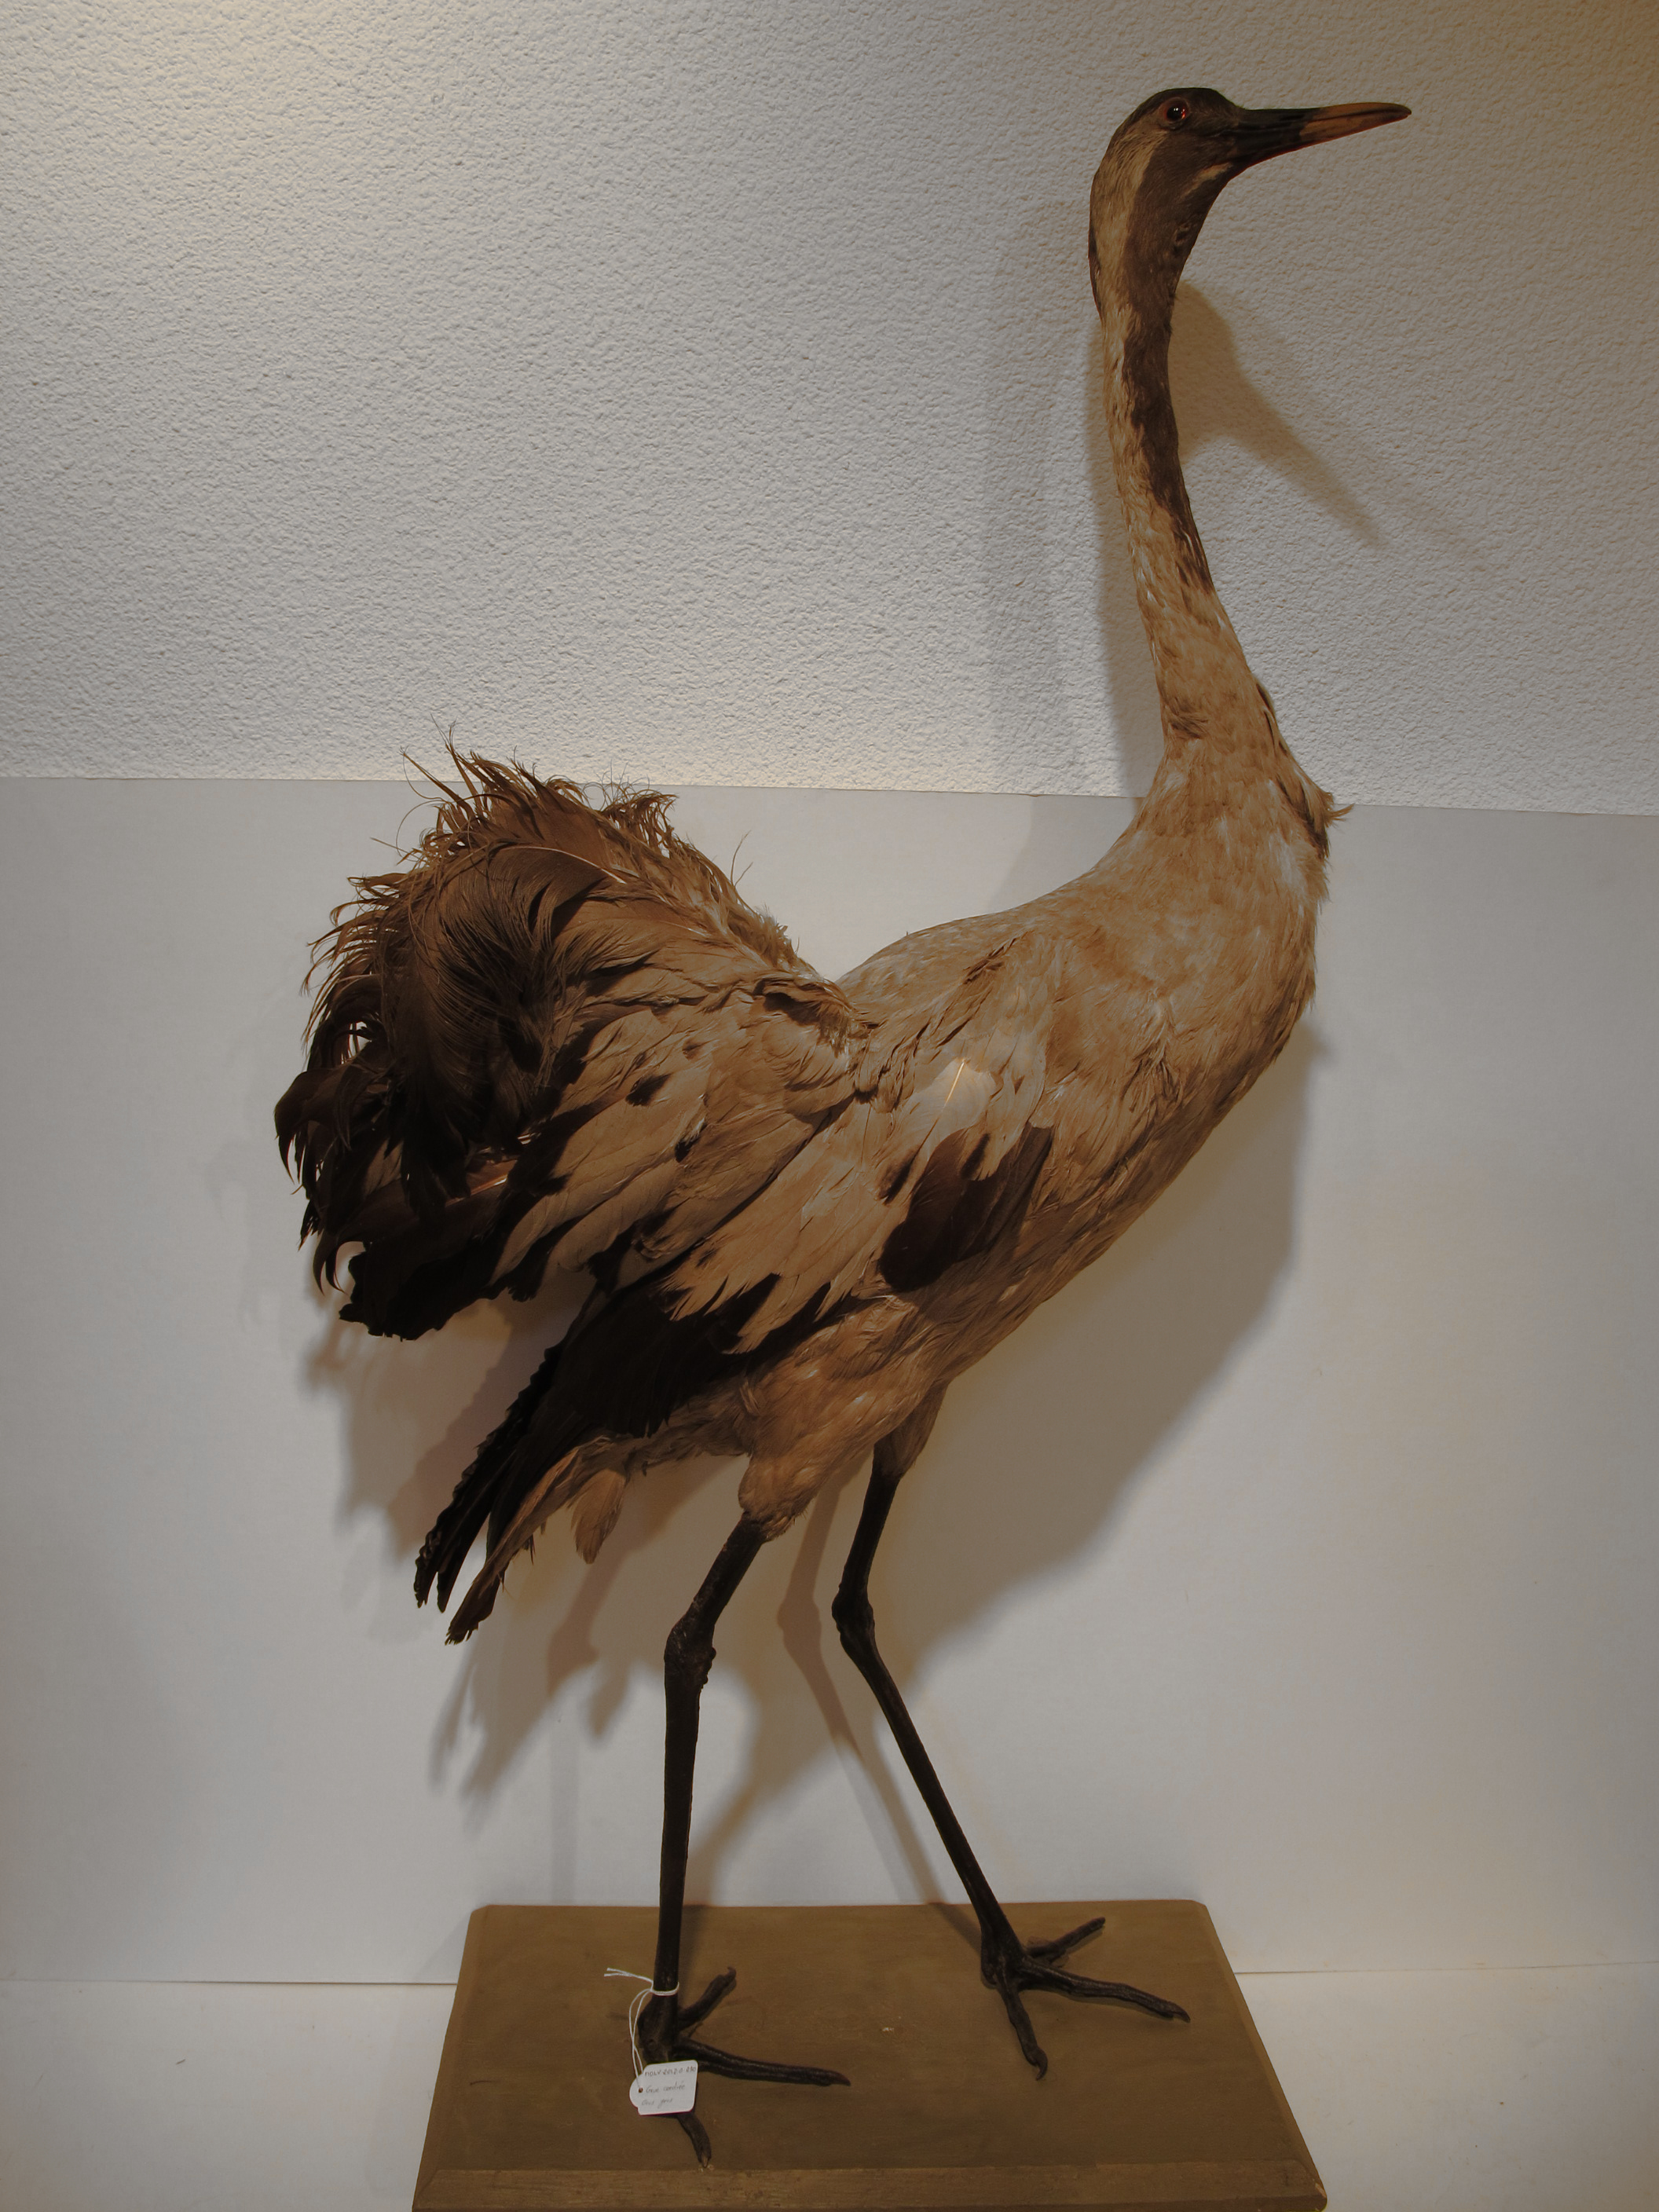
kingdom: Animalia
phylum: Chordata
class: Aves
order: Gruiformes
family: Gruidae
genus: Grus
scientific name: Grus grus
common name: Eurasian Crane
